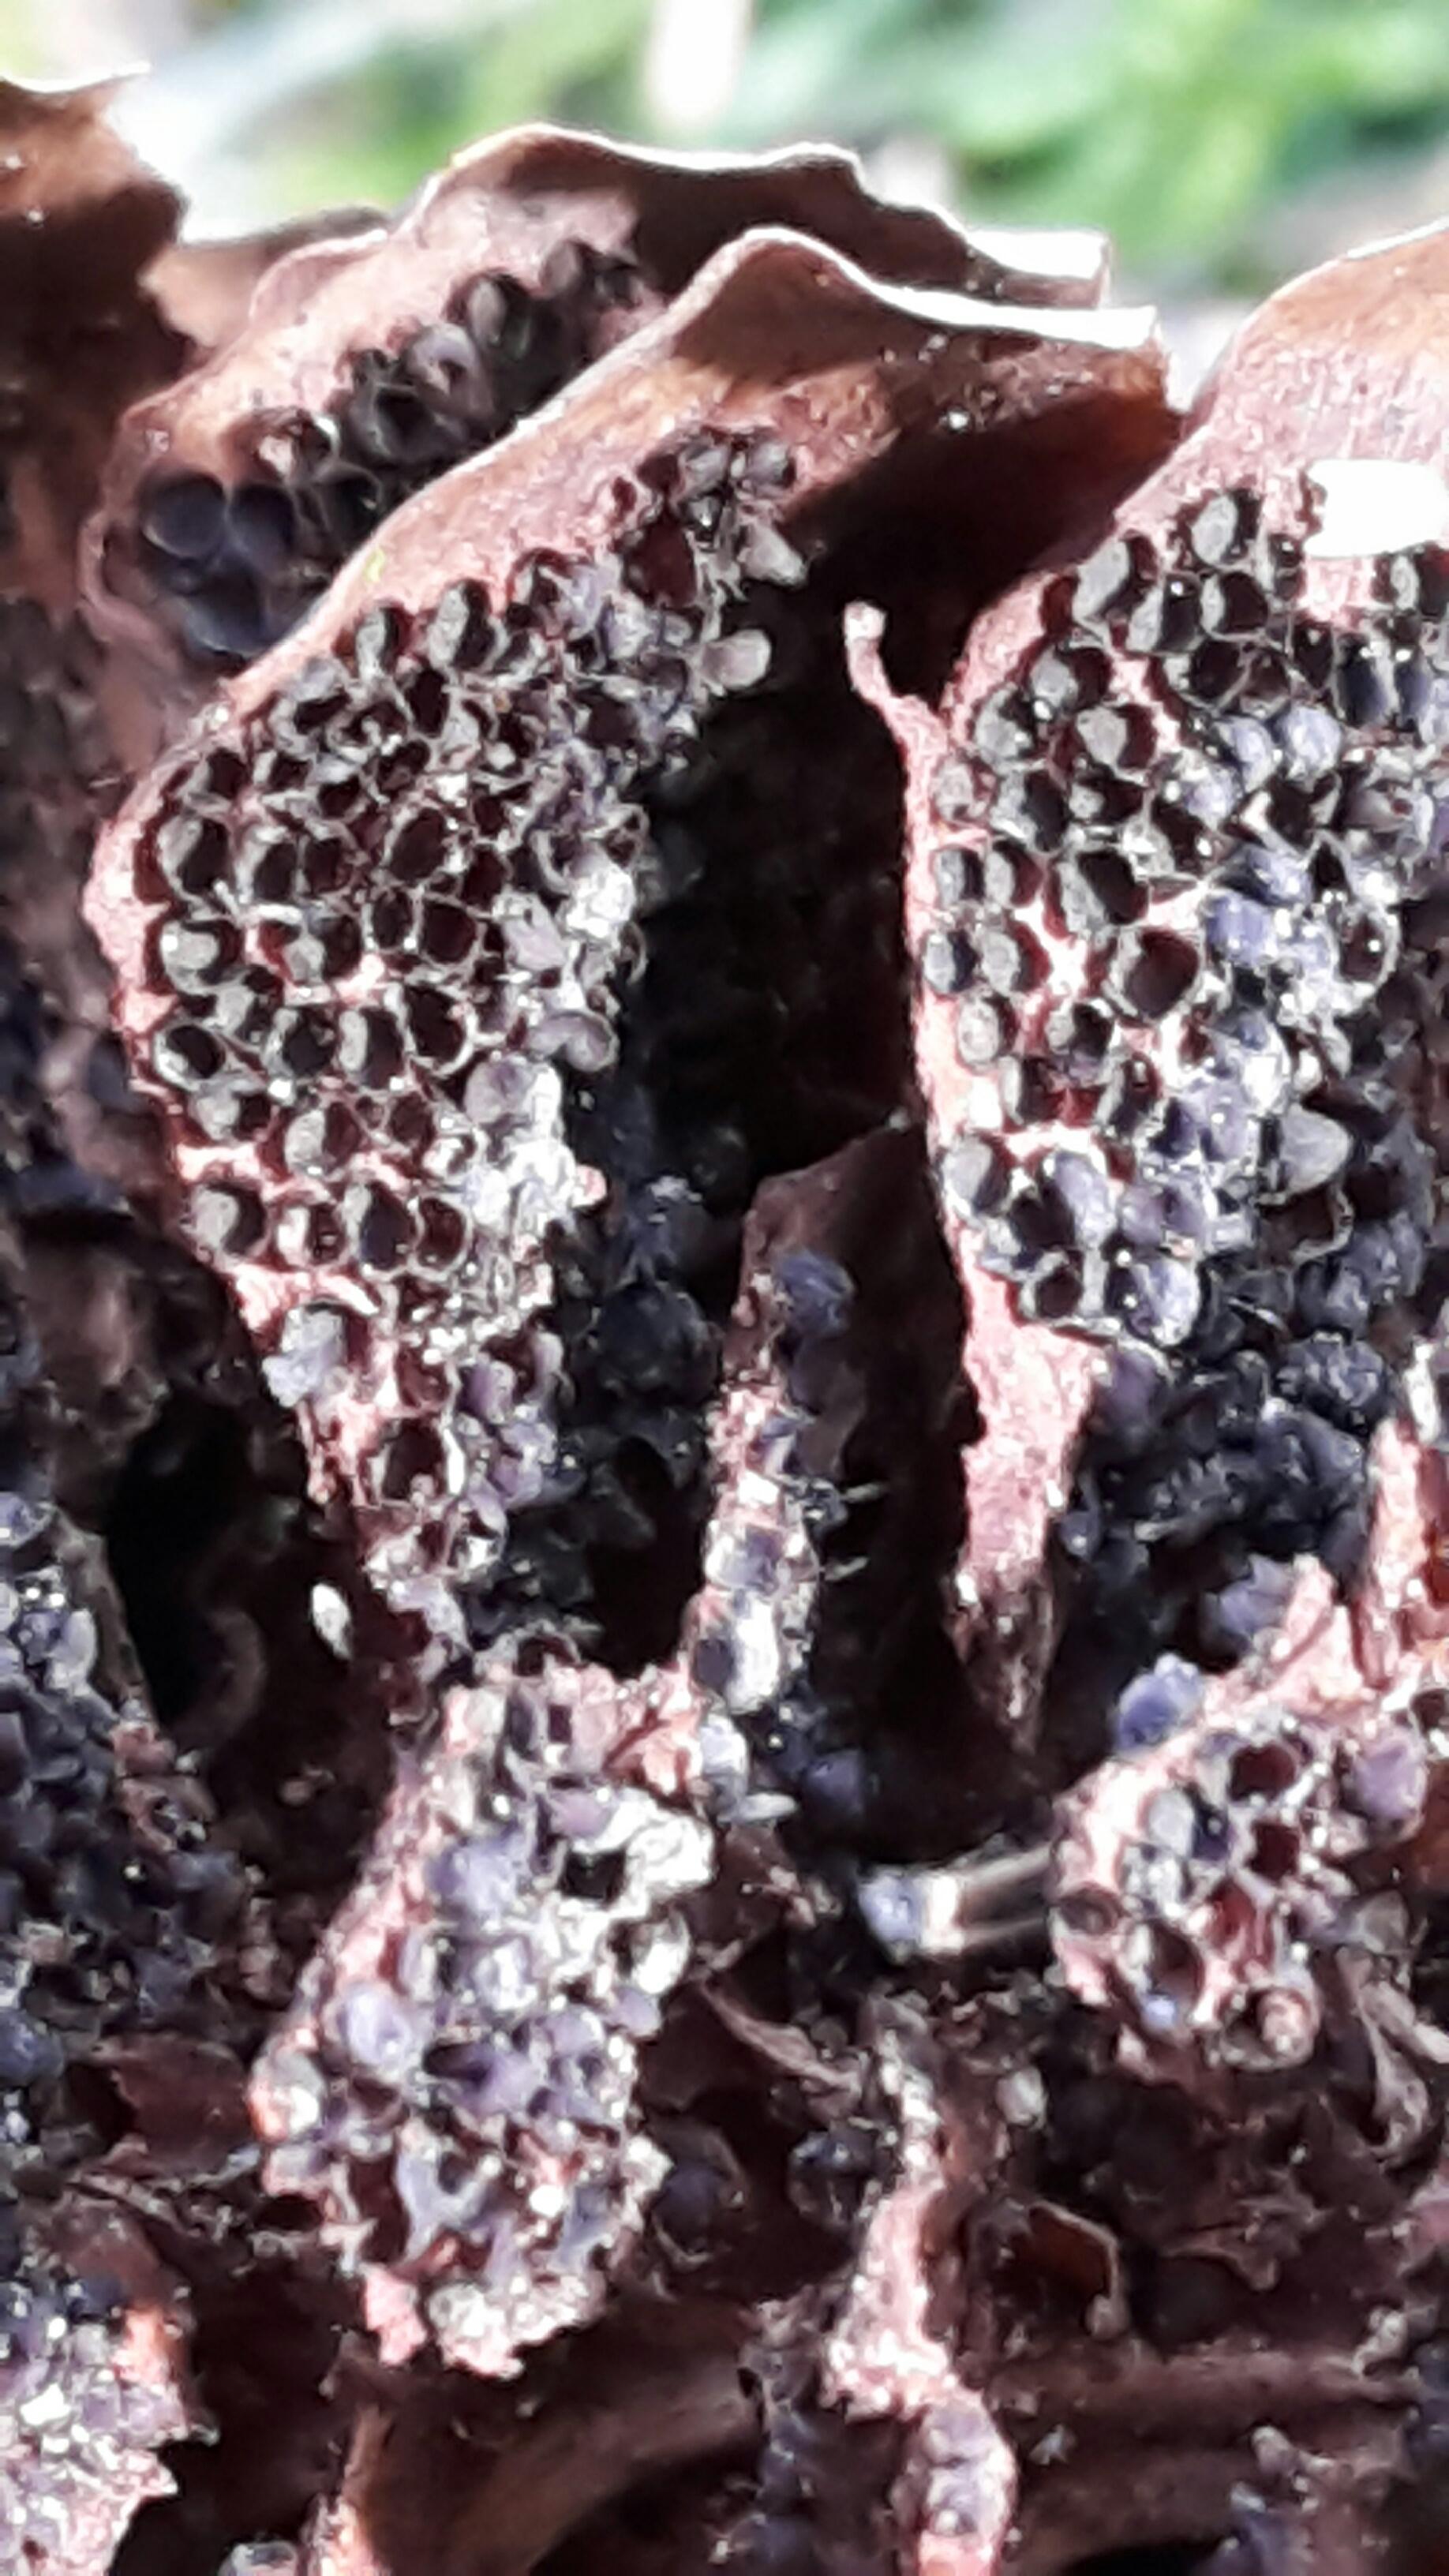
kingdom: Fungi
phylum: Basidiomycota
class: Pucciniomycetes
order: Pucciniales
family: Pucciniastraceae
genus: Thekopsora
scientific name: Thekopsora areolata
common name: grankogle-nålerust
